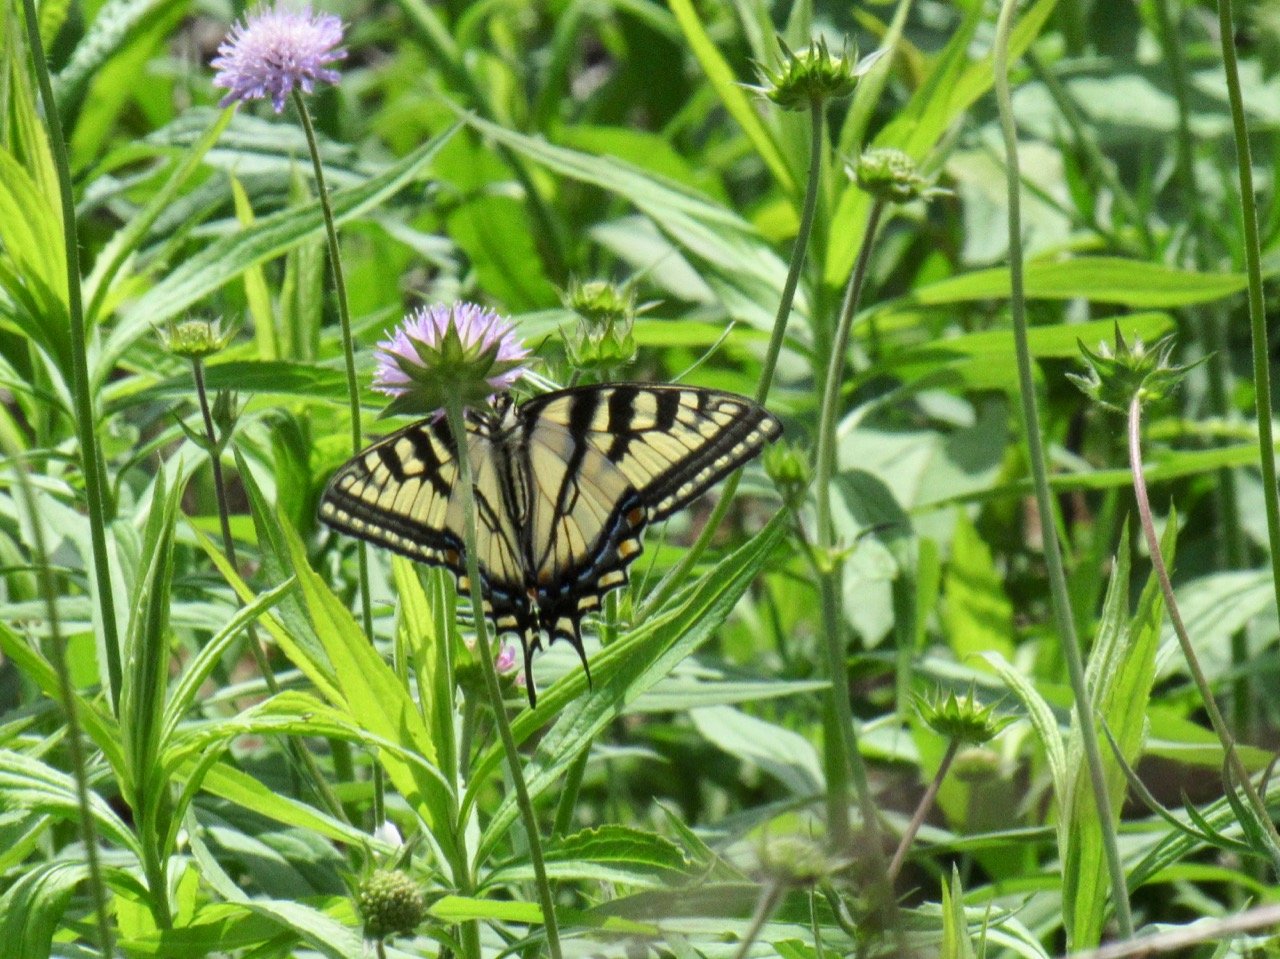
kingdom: Animalia
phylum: Arthropoda
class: Insecta
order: Lepidoptera
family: Papilionidae
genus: Pterourus
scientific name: Pterourus canadensis
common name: Canadian Tiger Swallowtail
